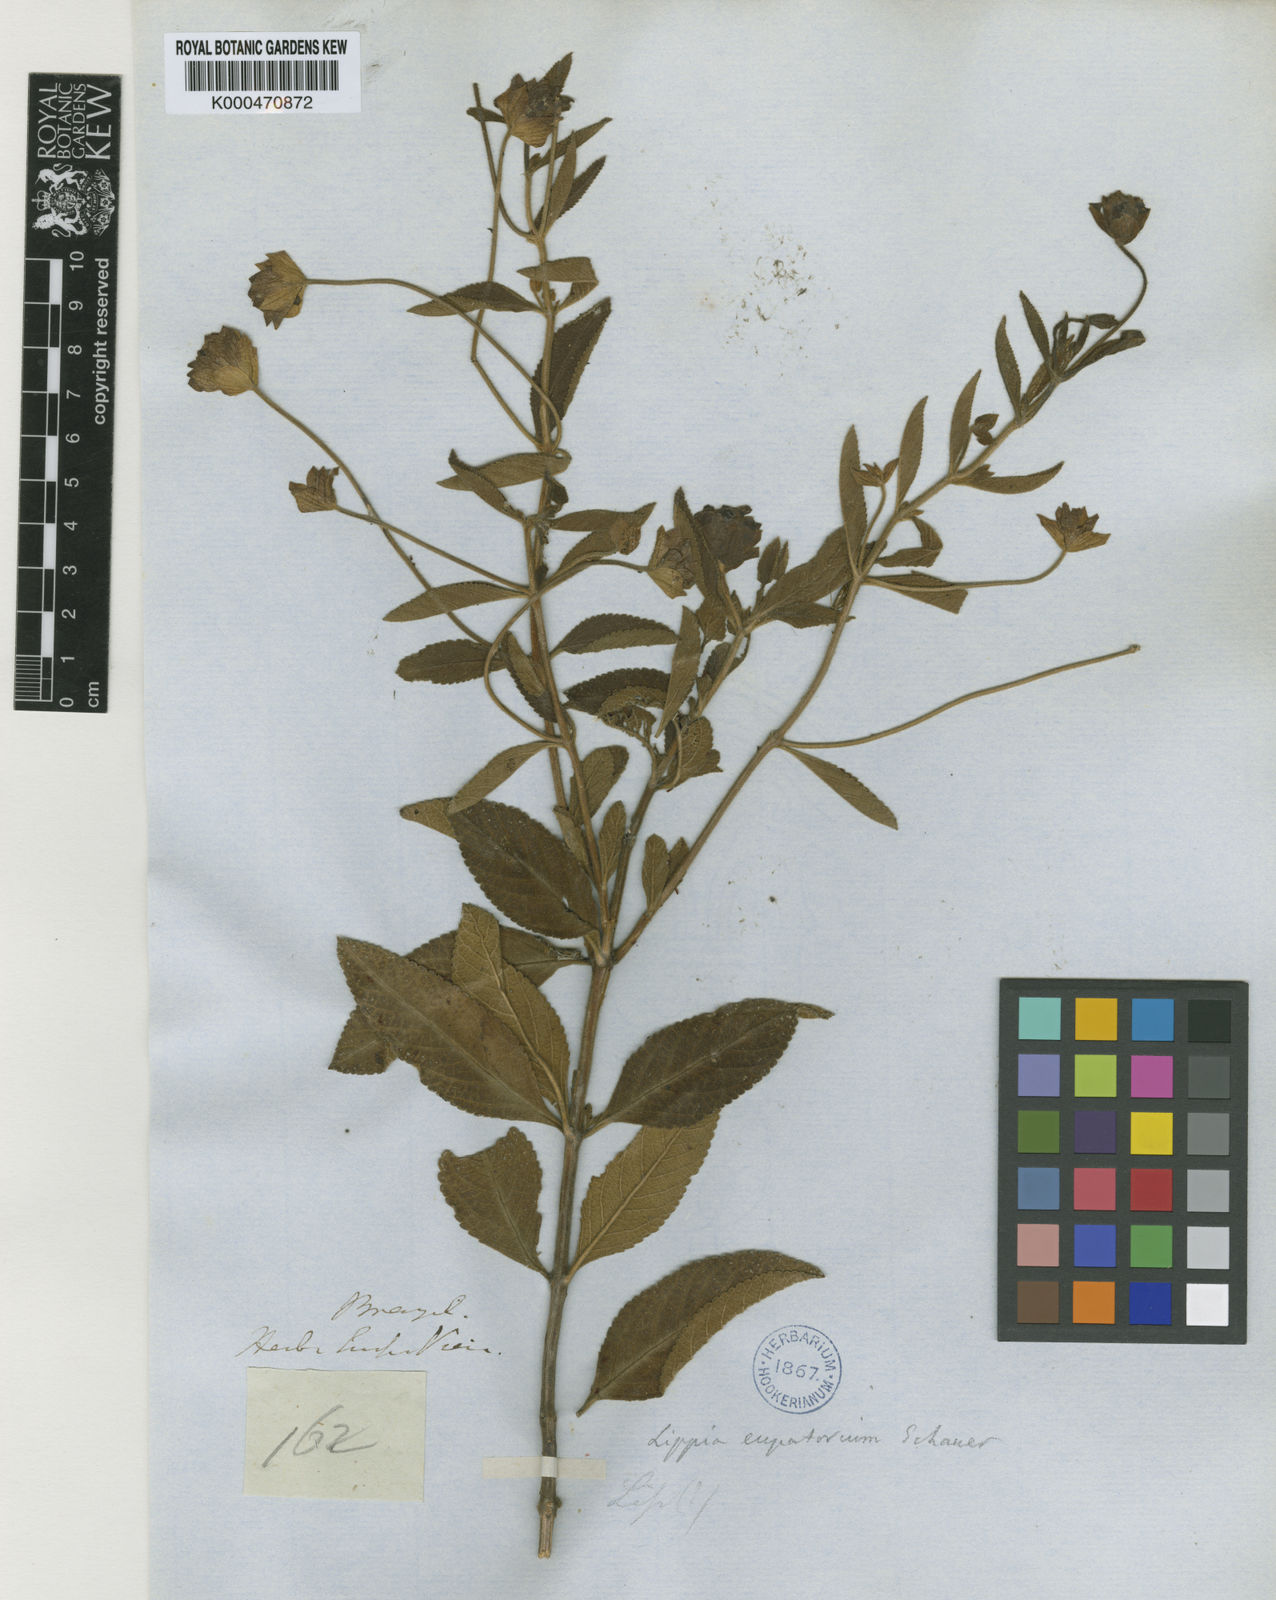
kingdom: Plantae
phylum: Tracheophyta
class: Magnoliopsida
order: Lamiales
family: Verbenaceae
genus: Lippia
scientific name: Lippia eupatorium
